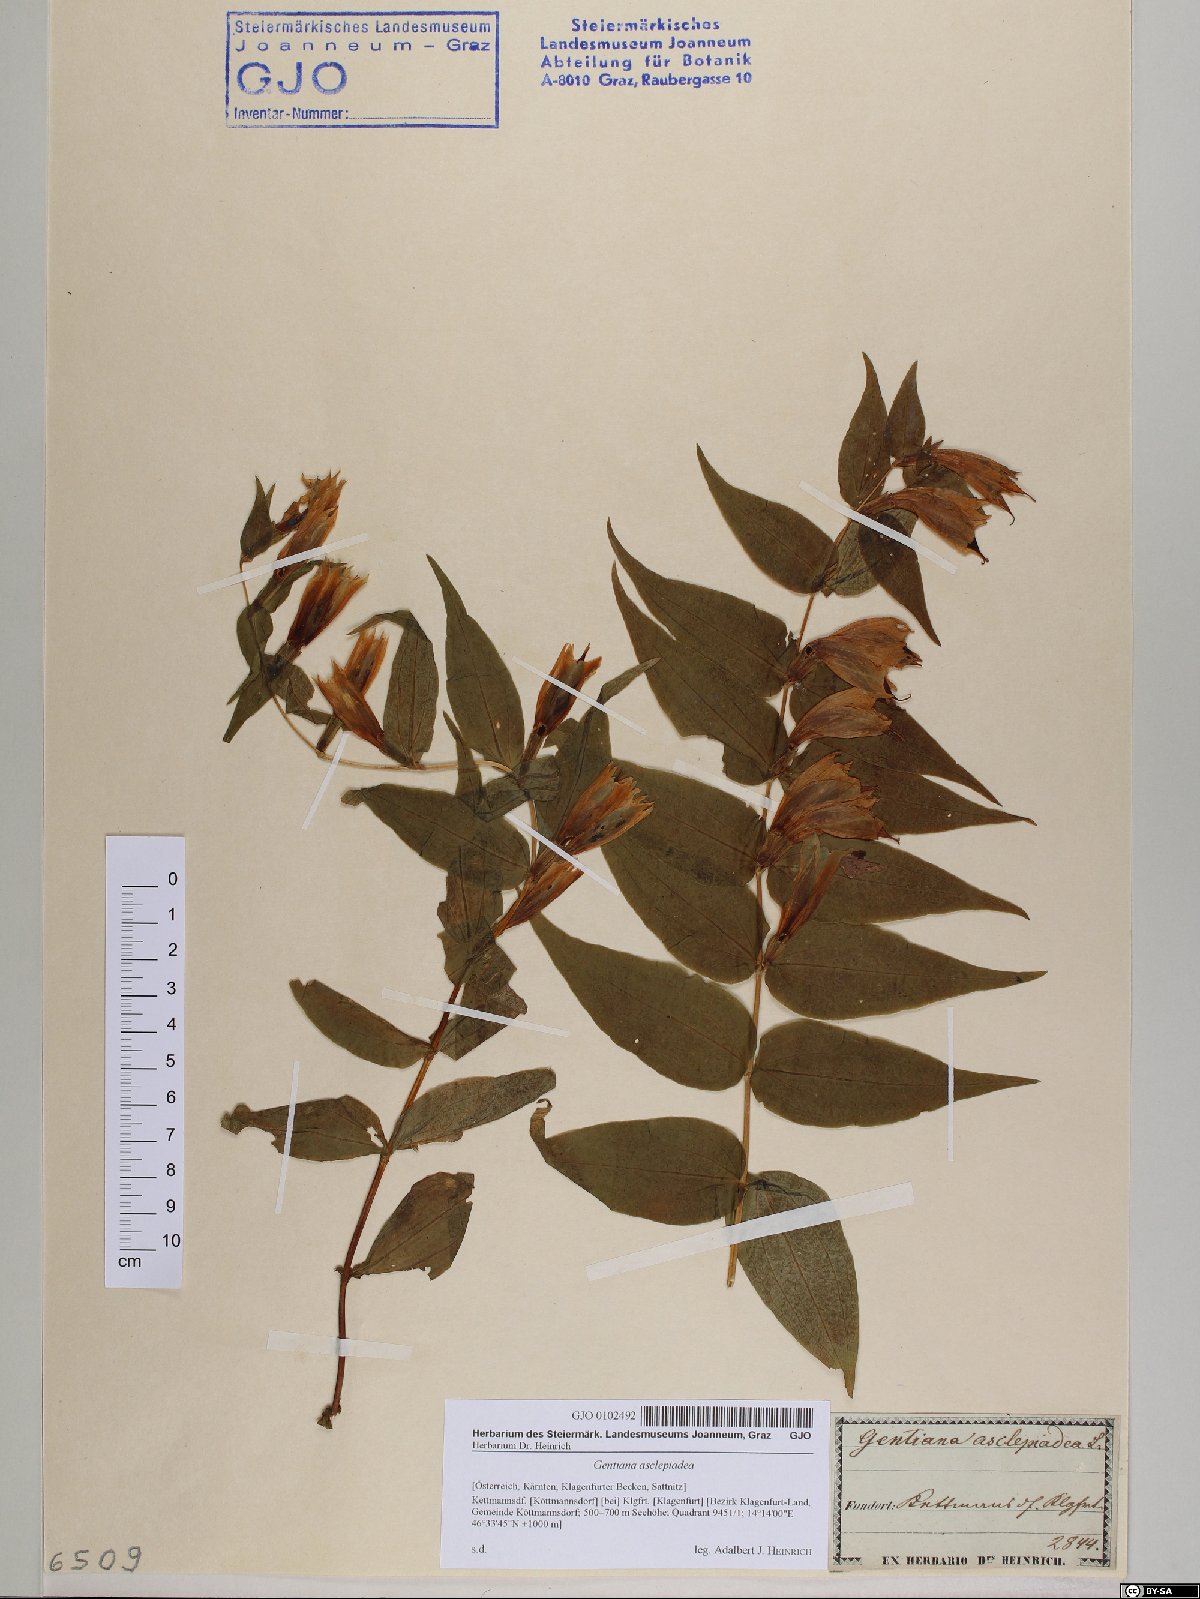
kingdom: Plantae
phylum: Tracheophyta
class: Magnoliopsida
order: Gentianales
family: Gentianaceae
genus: Gentiana
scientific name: Gentiana asclepiadea
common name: Willow gentian
